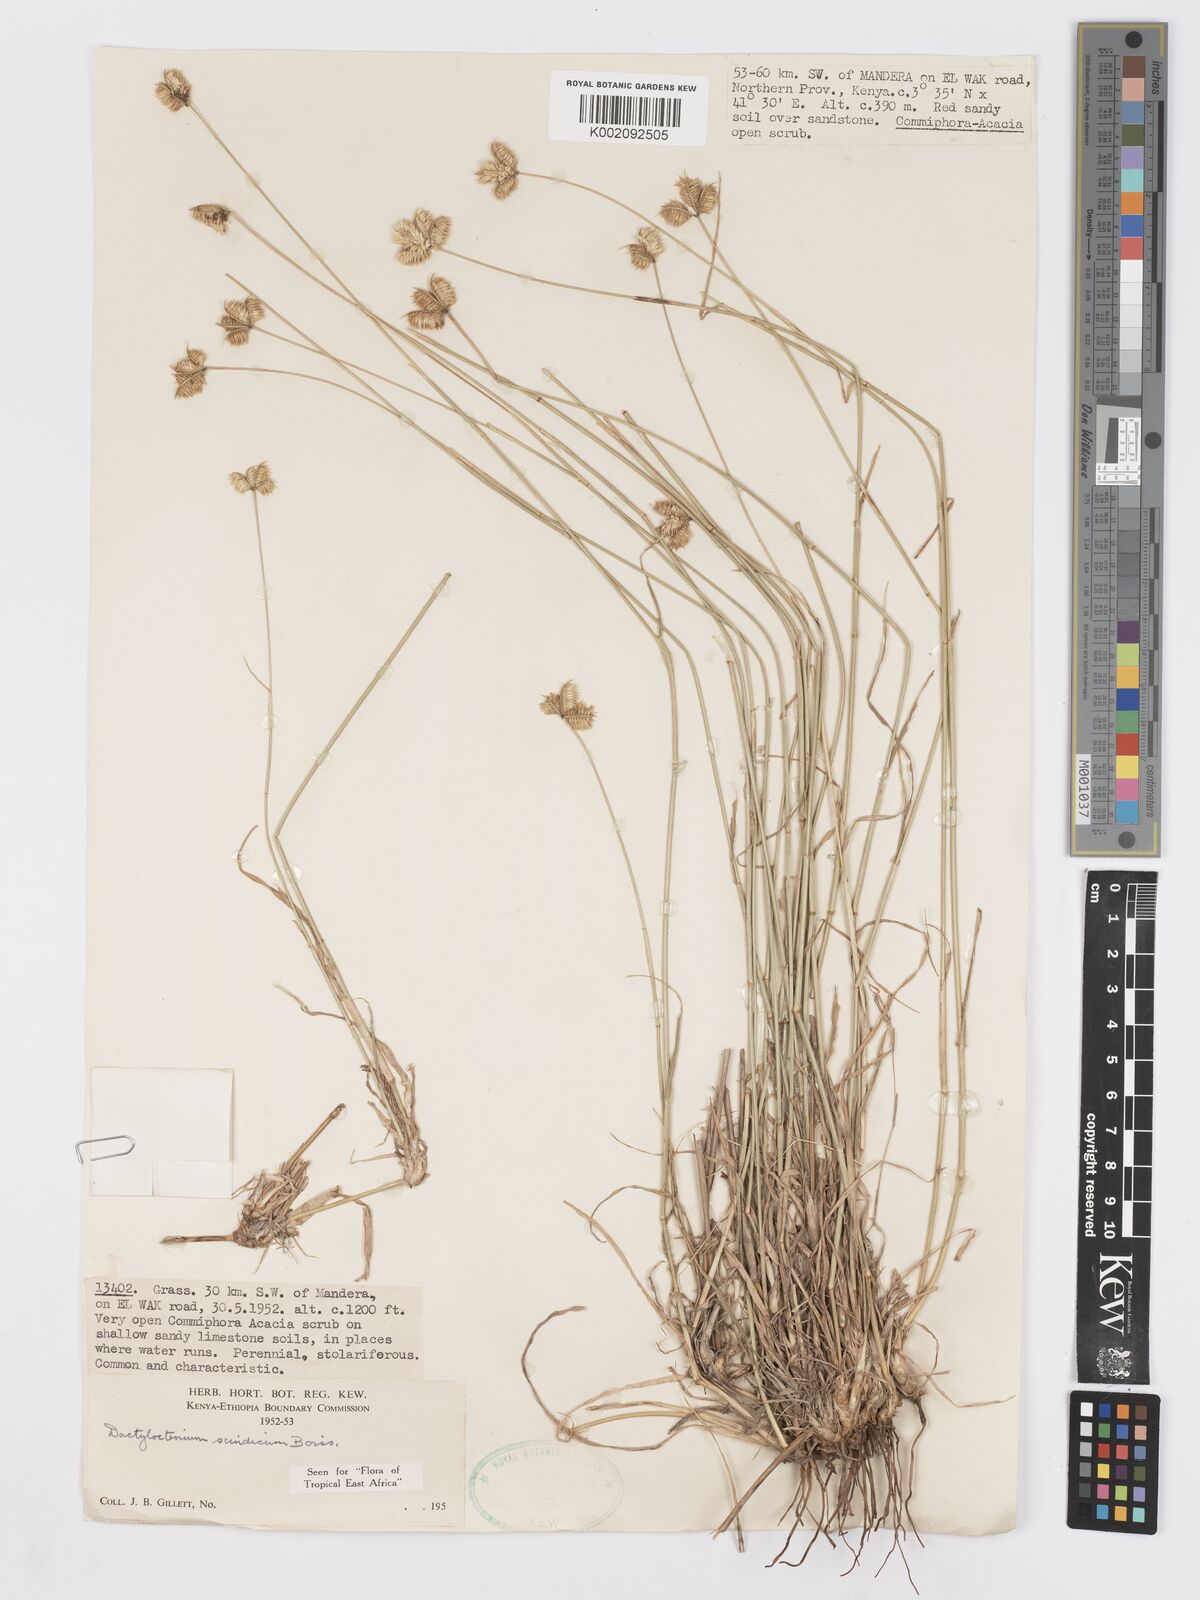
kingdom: Plantae
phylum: Tracheophyta
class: Liliopsida
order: Poales
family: Poaceae
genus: Dactyloctenium
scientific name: Dactyloctenium scindicum
